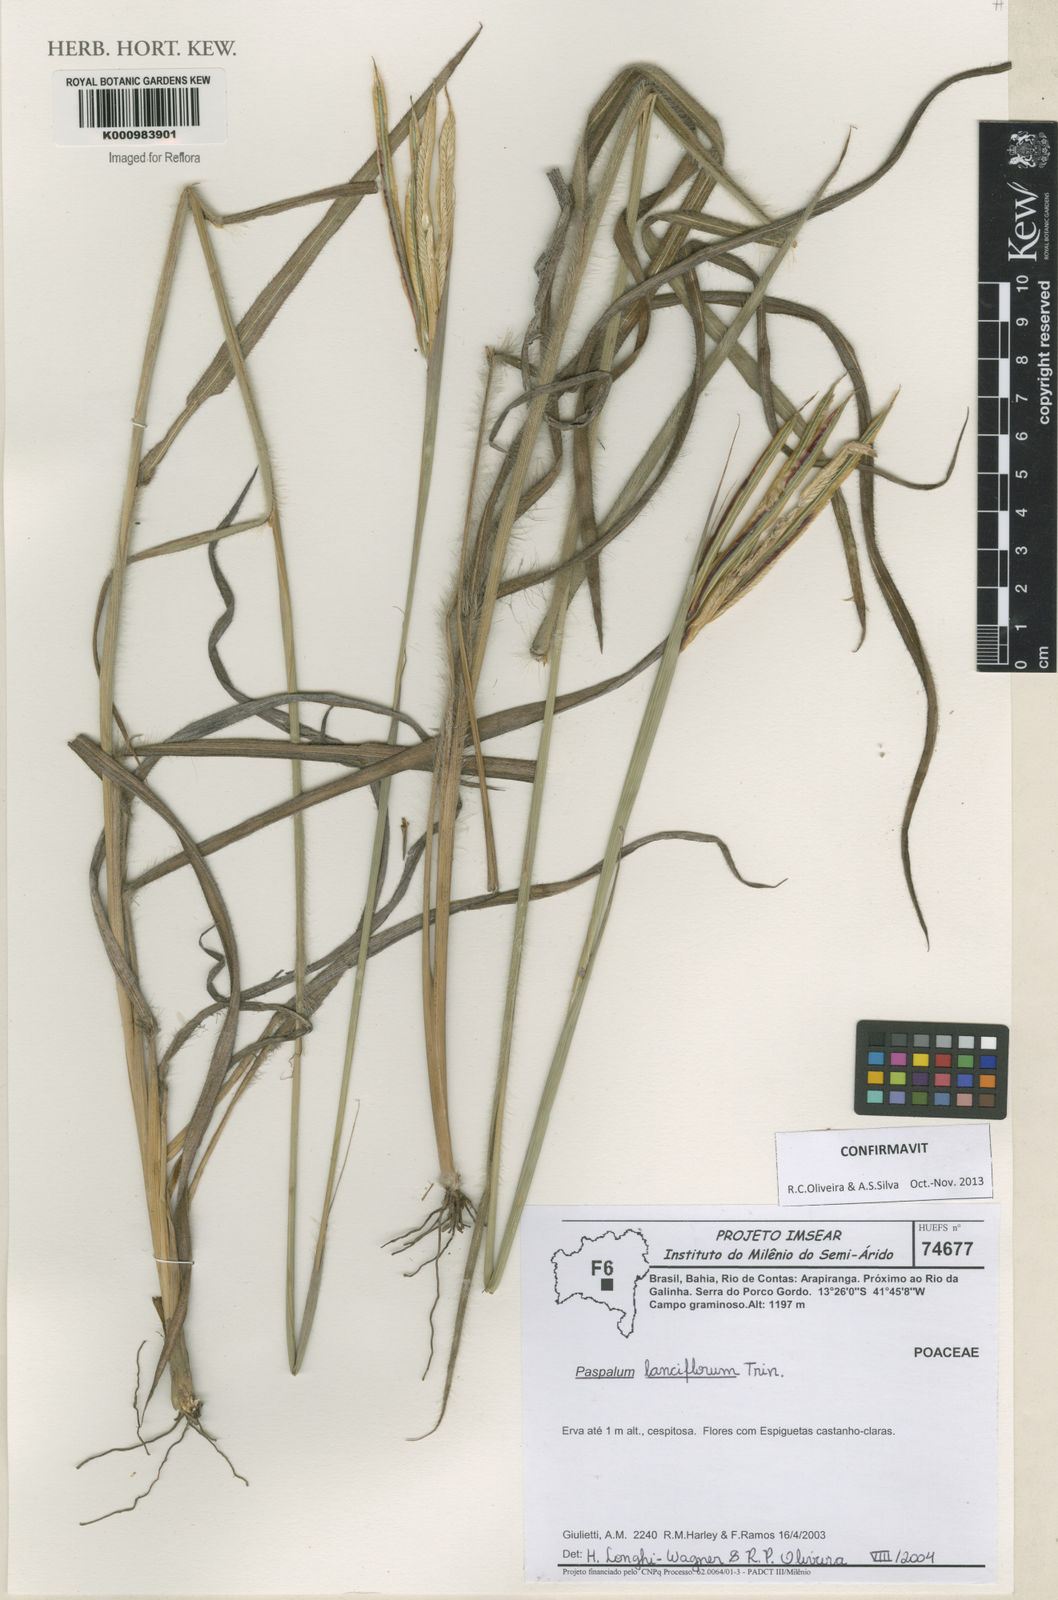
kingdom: Plantae
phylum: Tracheophyta
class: Liliopsida
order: Poales
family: Poaceae
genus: Paspalum
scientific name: Paspalum
